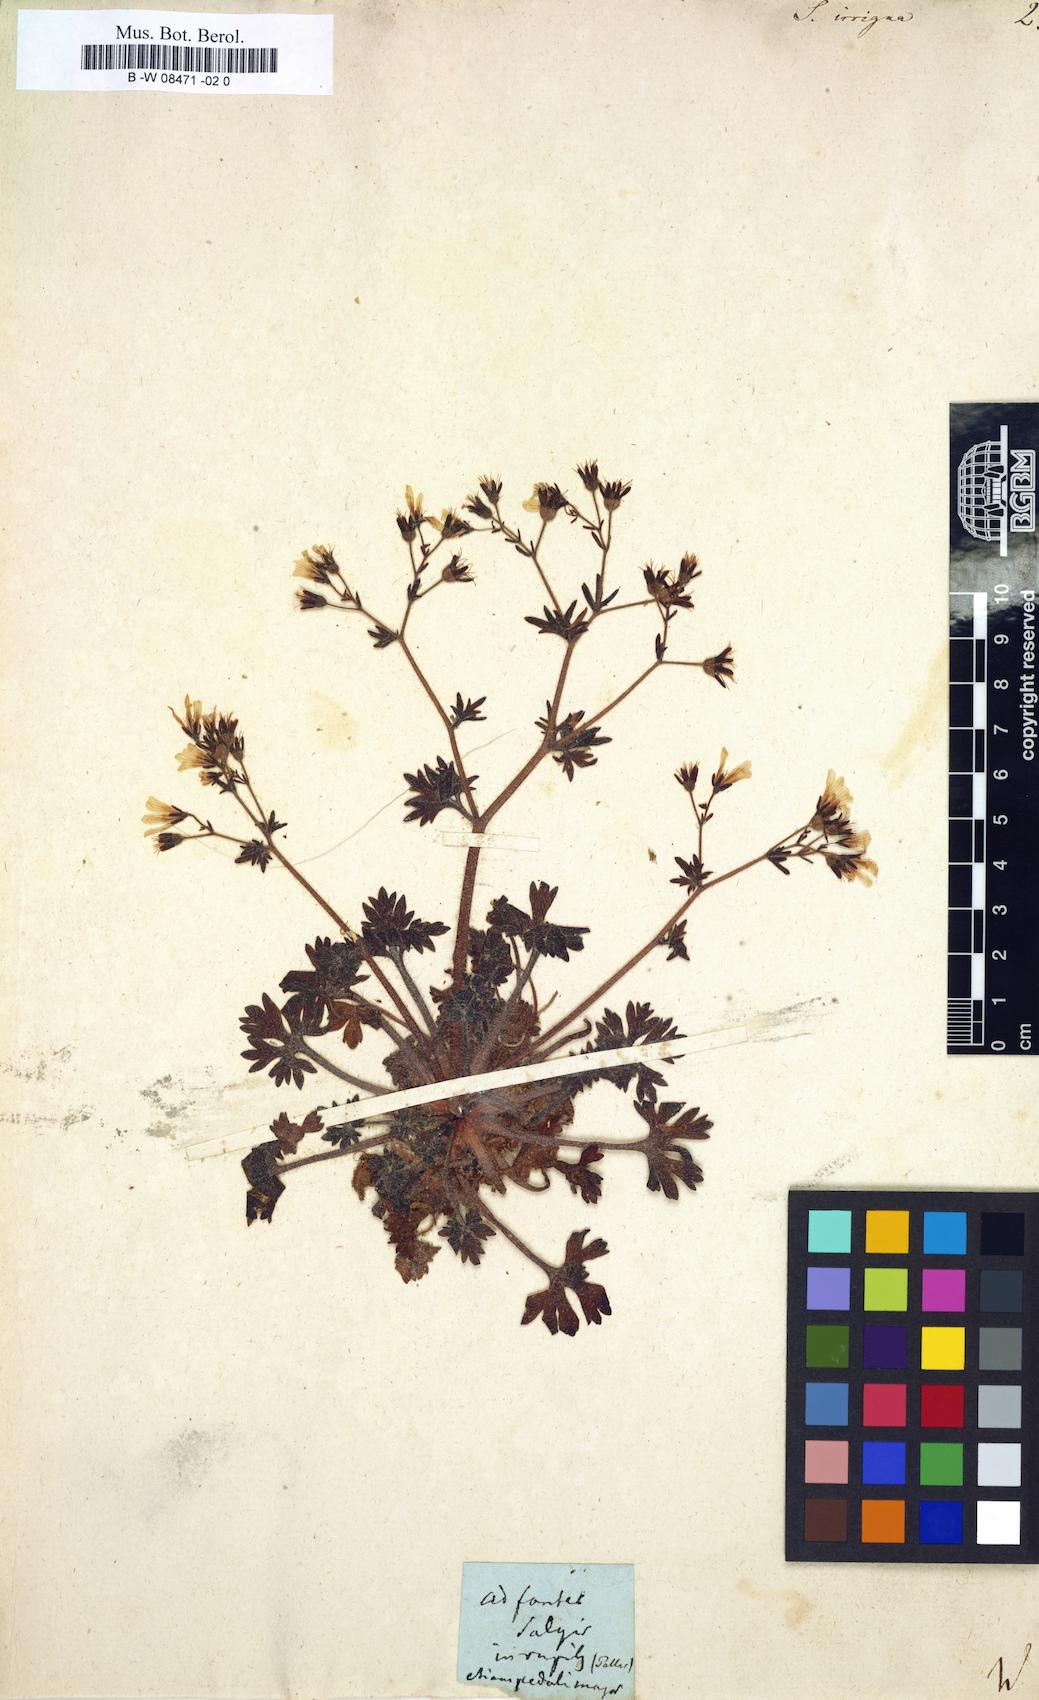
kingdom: Plantae
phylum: Tracheophyta
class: Magnoliopsida
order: Saxifragales
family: Saxifragaceae
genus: Saxifraga
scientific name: Saxifraga irrigua
